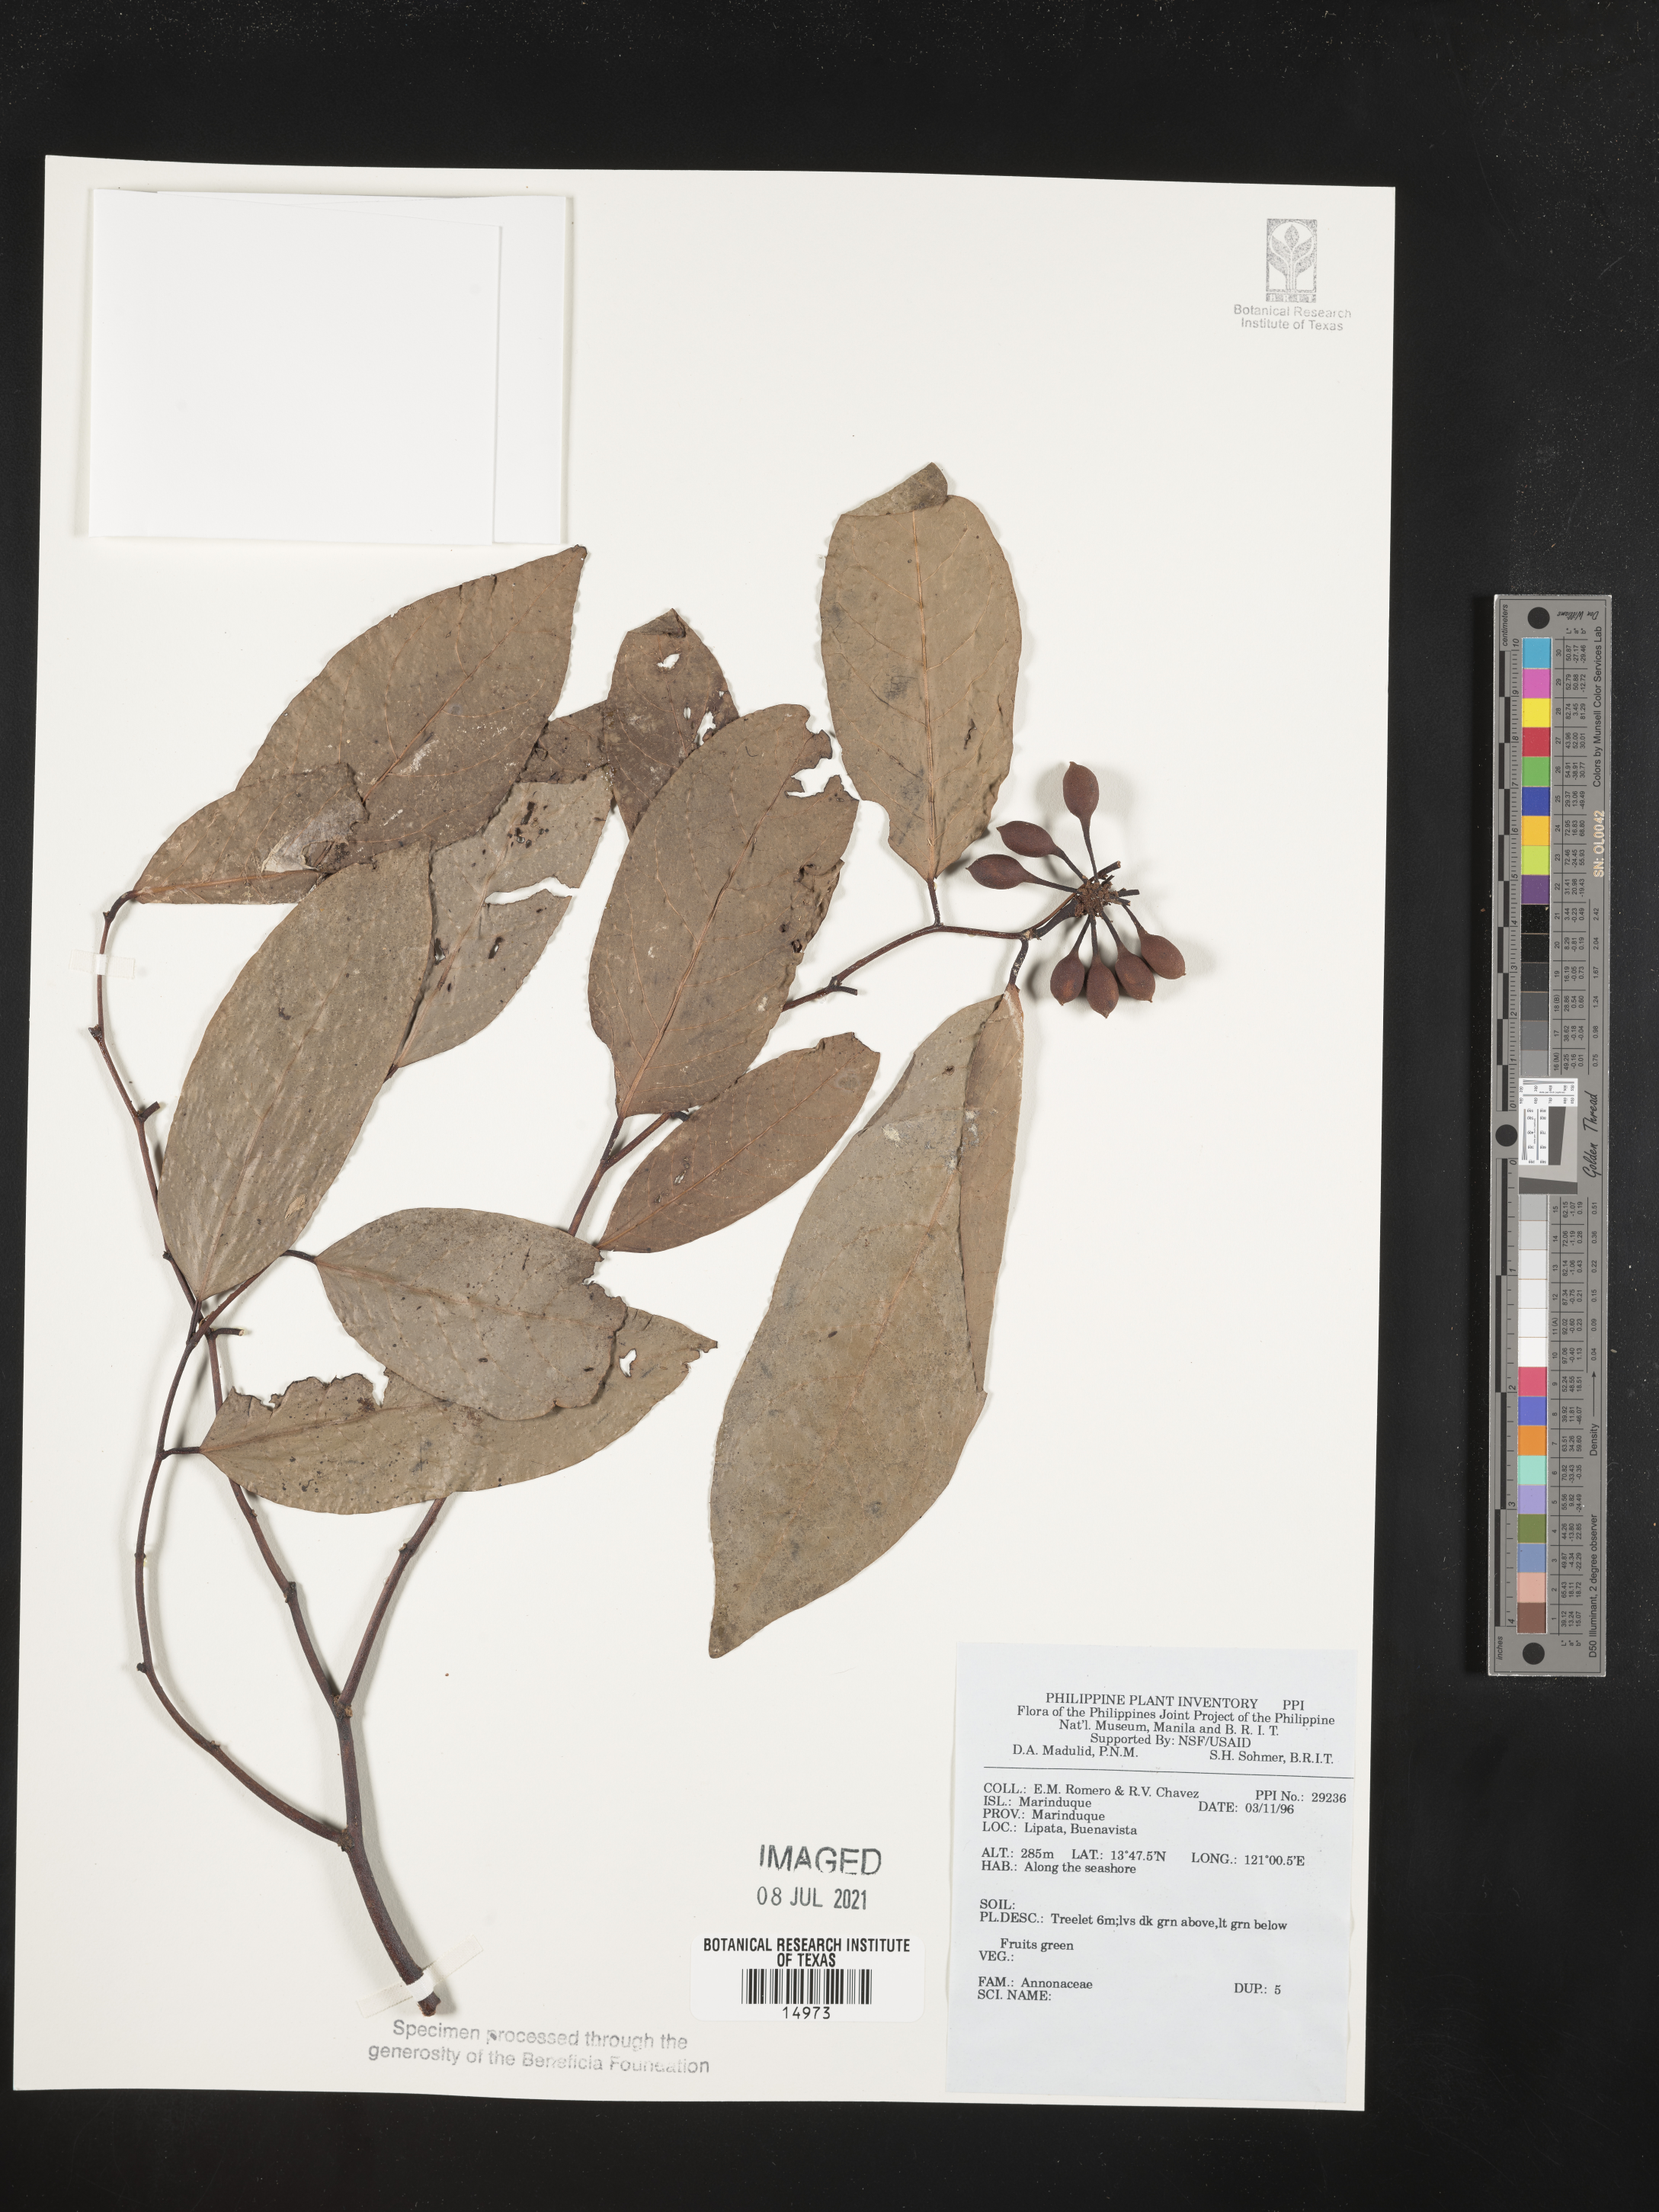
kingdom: Plantae
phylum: Tracheophyta
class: Magnoliopsida
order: Magnoliales
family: Annonaceae
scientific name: Annonaceae
